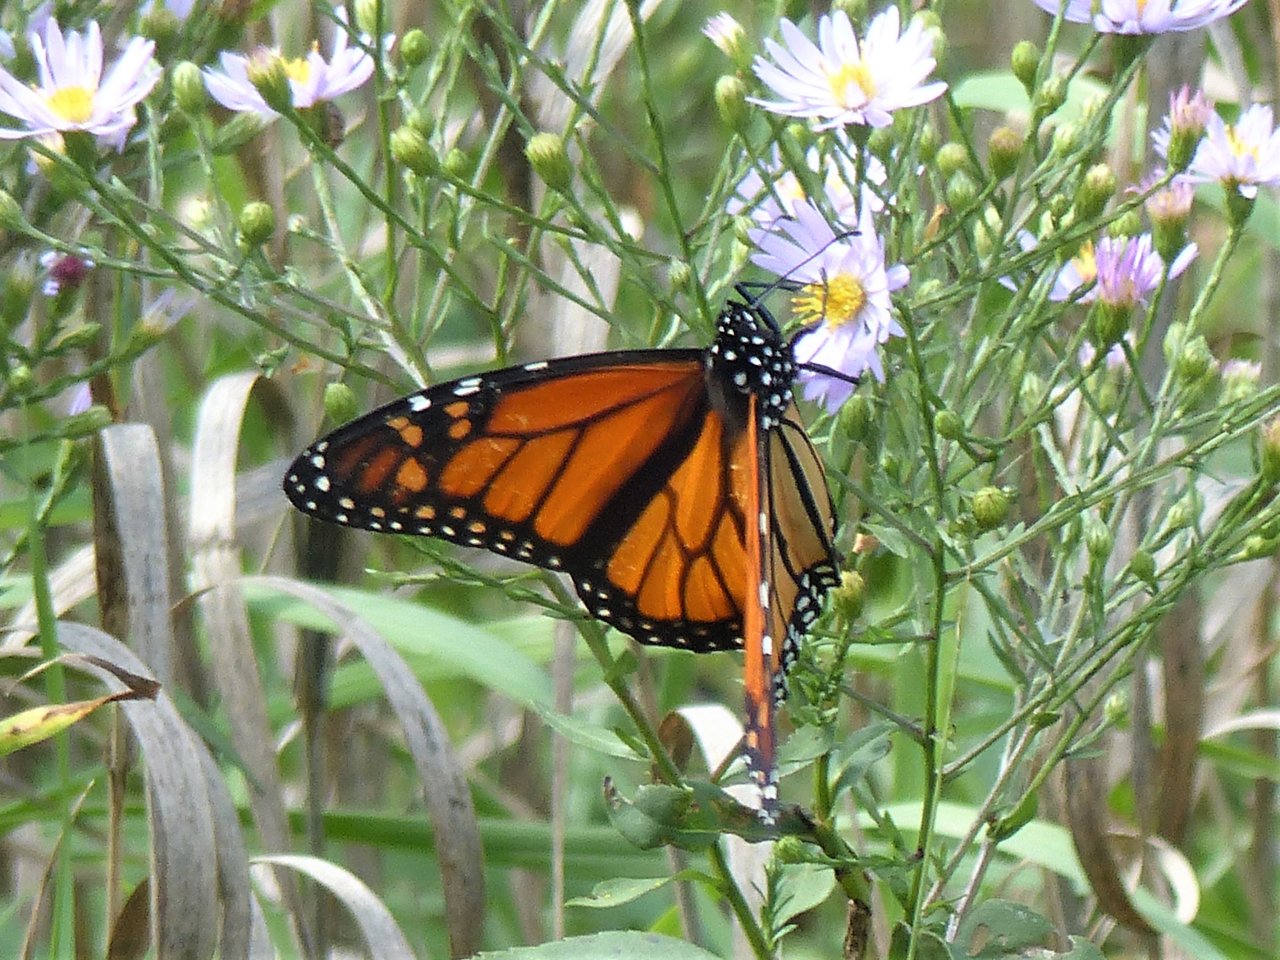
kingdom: Animalia
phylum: Arthropoda
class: Insecta
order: Lepidoptera
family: Nymphalidae
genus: Danaus
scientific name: Danaus plexippus
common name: Monarch
